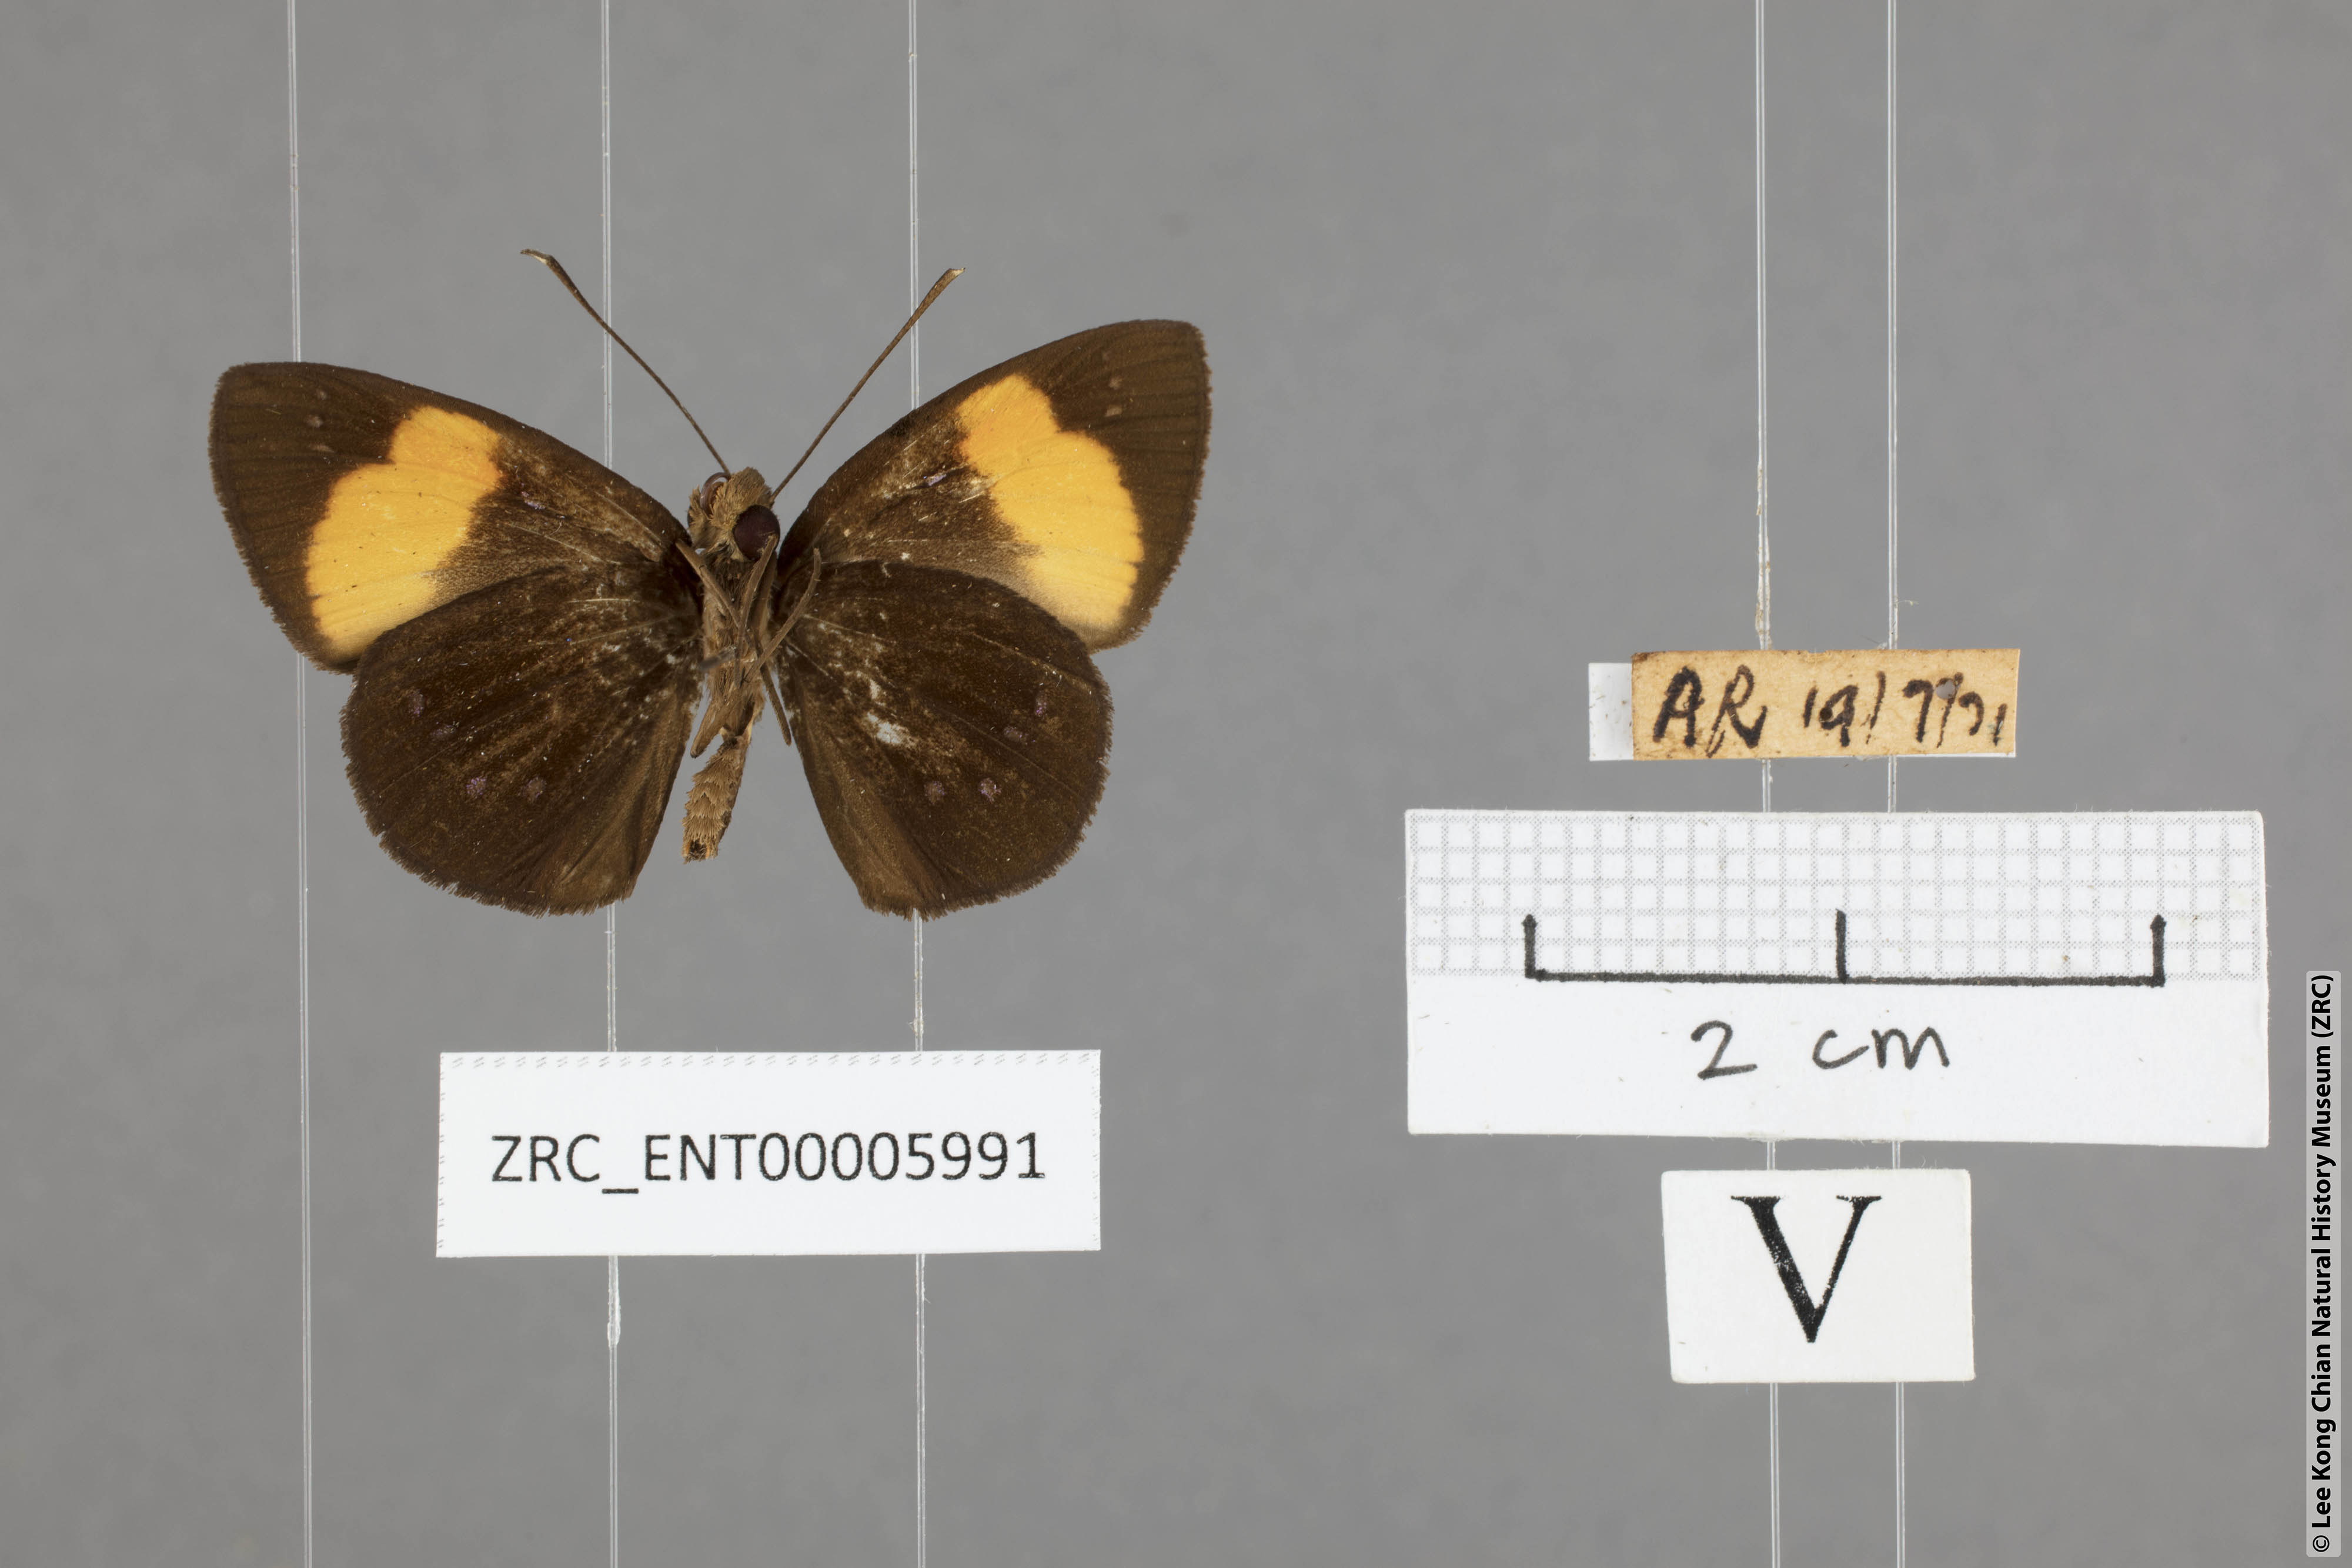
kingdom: Animalia
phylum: Arthropoda
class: Insecta
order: Lepidoptera
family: Hesperiidae
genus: Ancistroides
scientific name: Ancistroides gemmifer
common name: Gem demon
